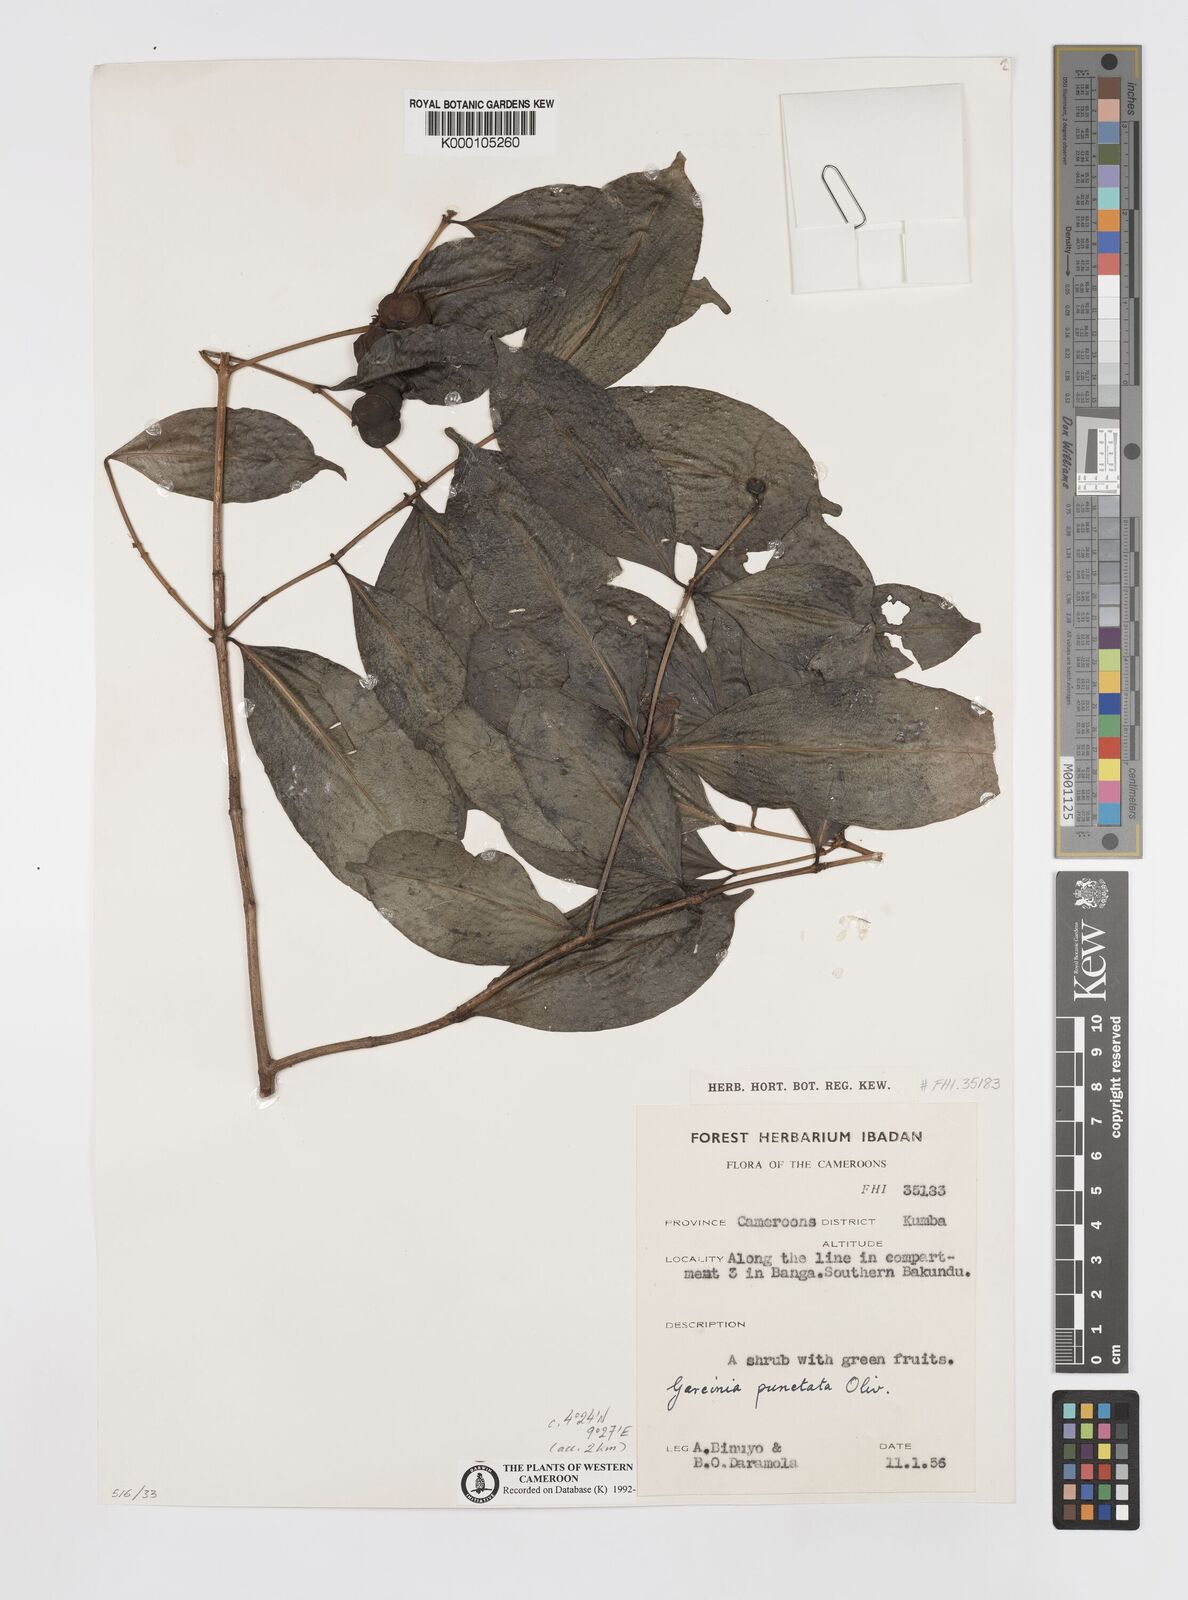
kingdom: Plantae
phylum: Tracheophyta
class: Magnoliopsida
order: Malpighiales
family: Clusiaceae
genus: Garcinia
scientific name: Garcinia punctata
